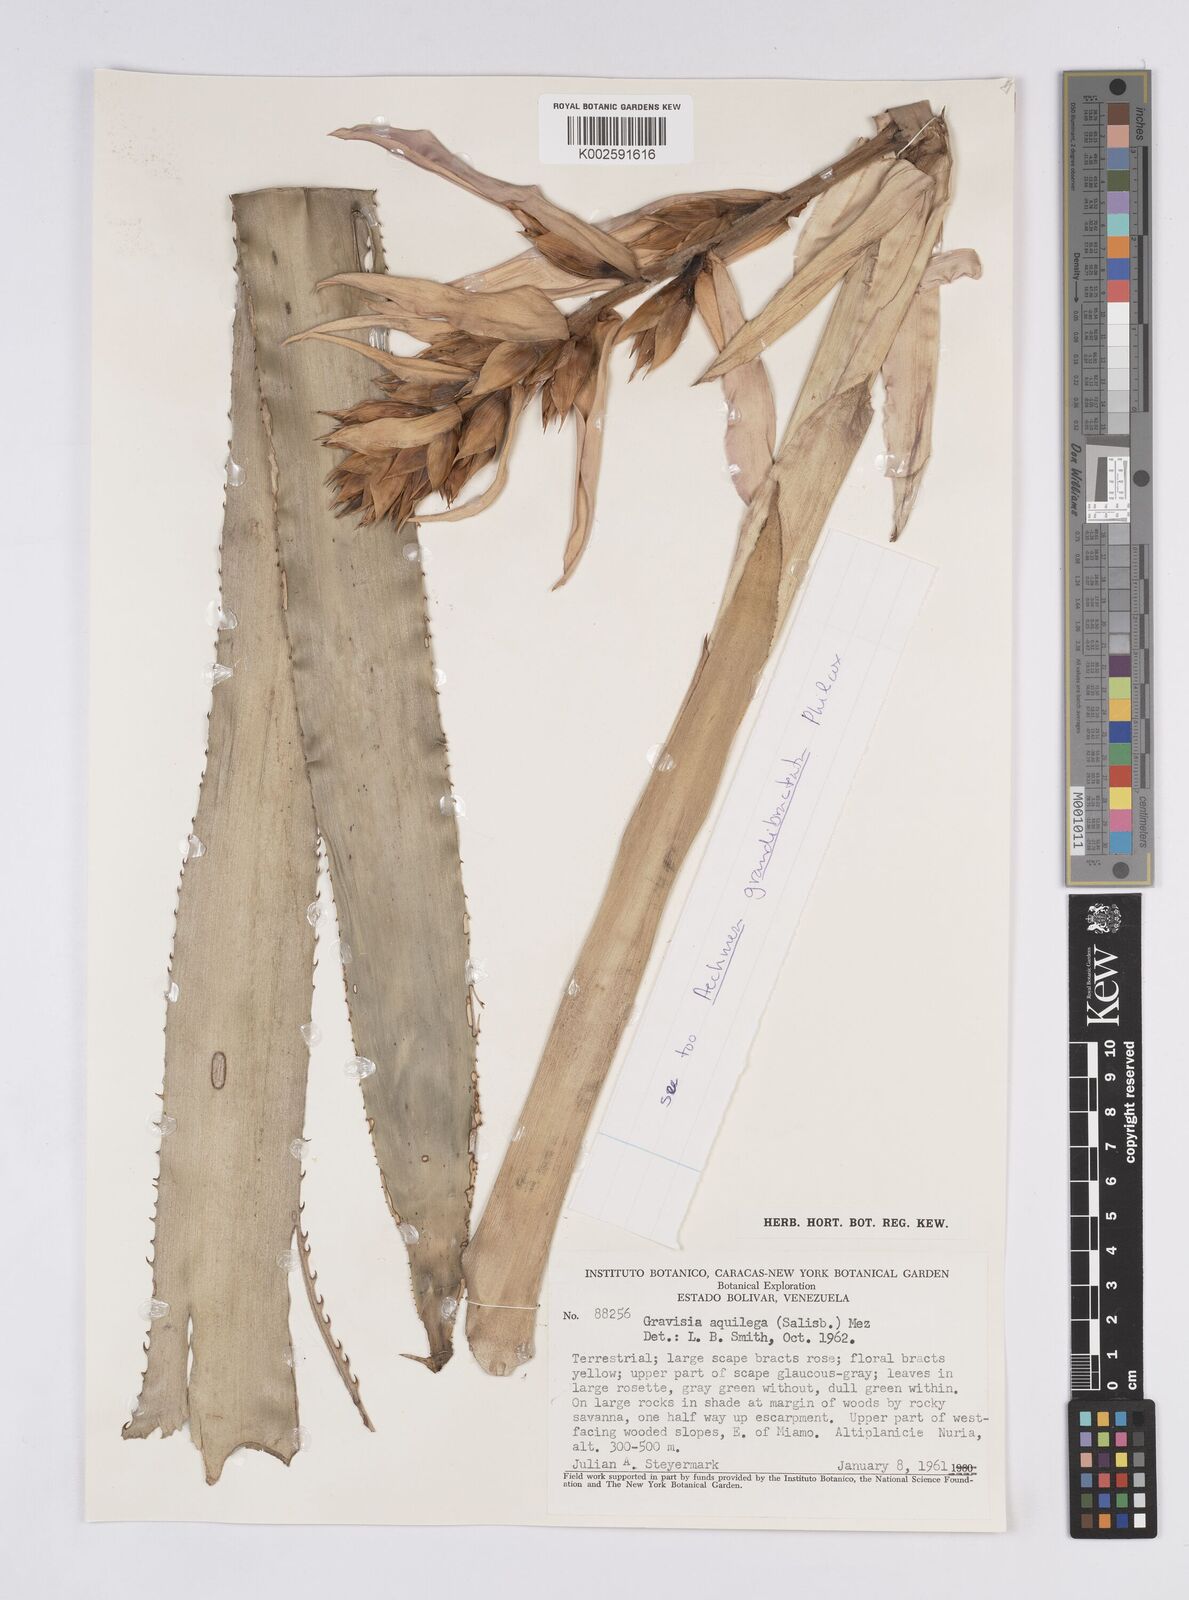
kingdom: Plantae
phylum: Tracheophyta
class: Liliopsida
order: Poales
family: Bromeliaceae
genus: Aechmea
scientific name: Aechmea aquilega
